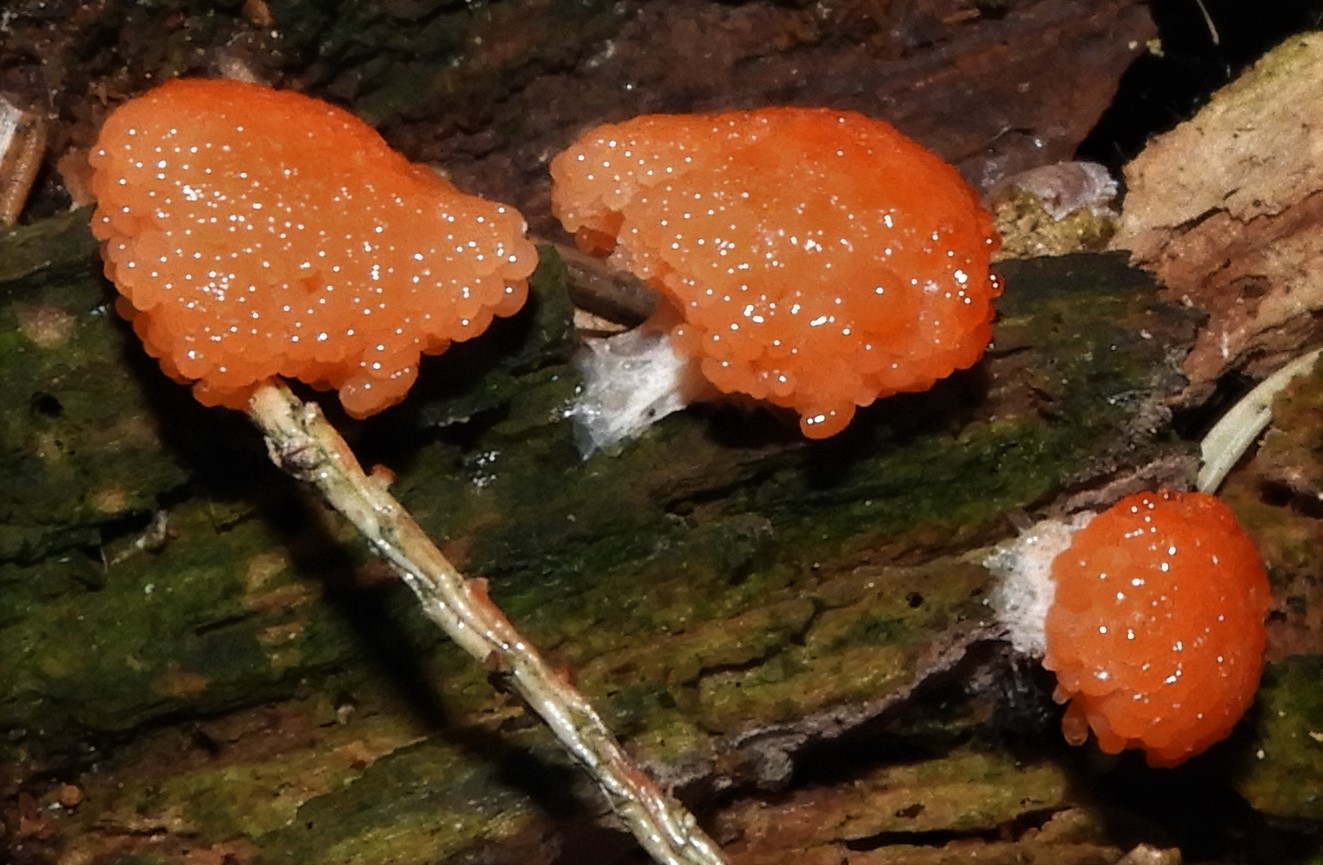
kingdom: Protozoa
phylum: Mycetozoa
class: Myxomycetes
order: Cribrariales
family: Tubiferaceae
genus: Tubifera
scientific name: Tubifera ferruginosa
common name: kanel-støvrør
